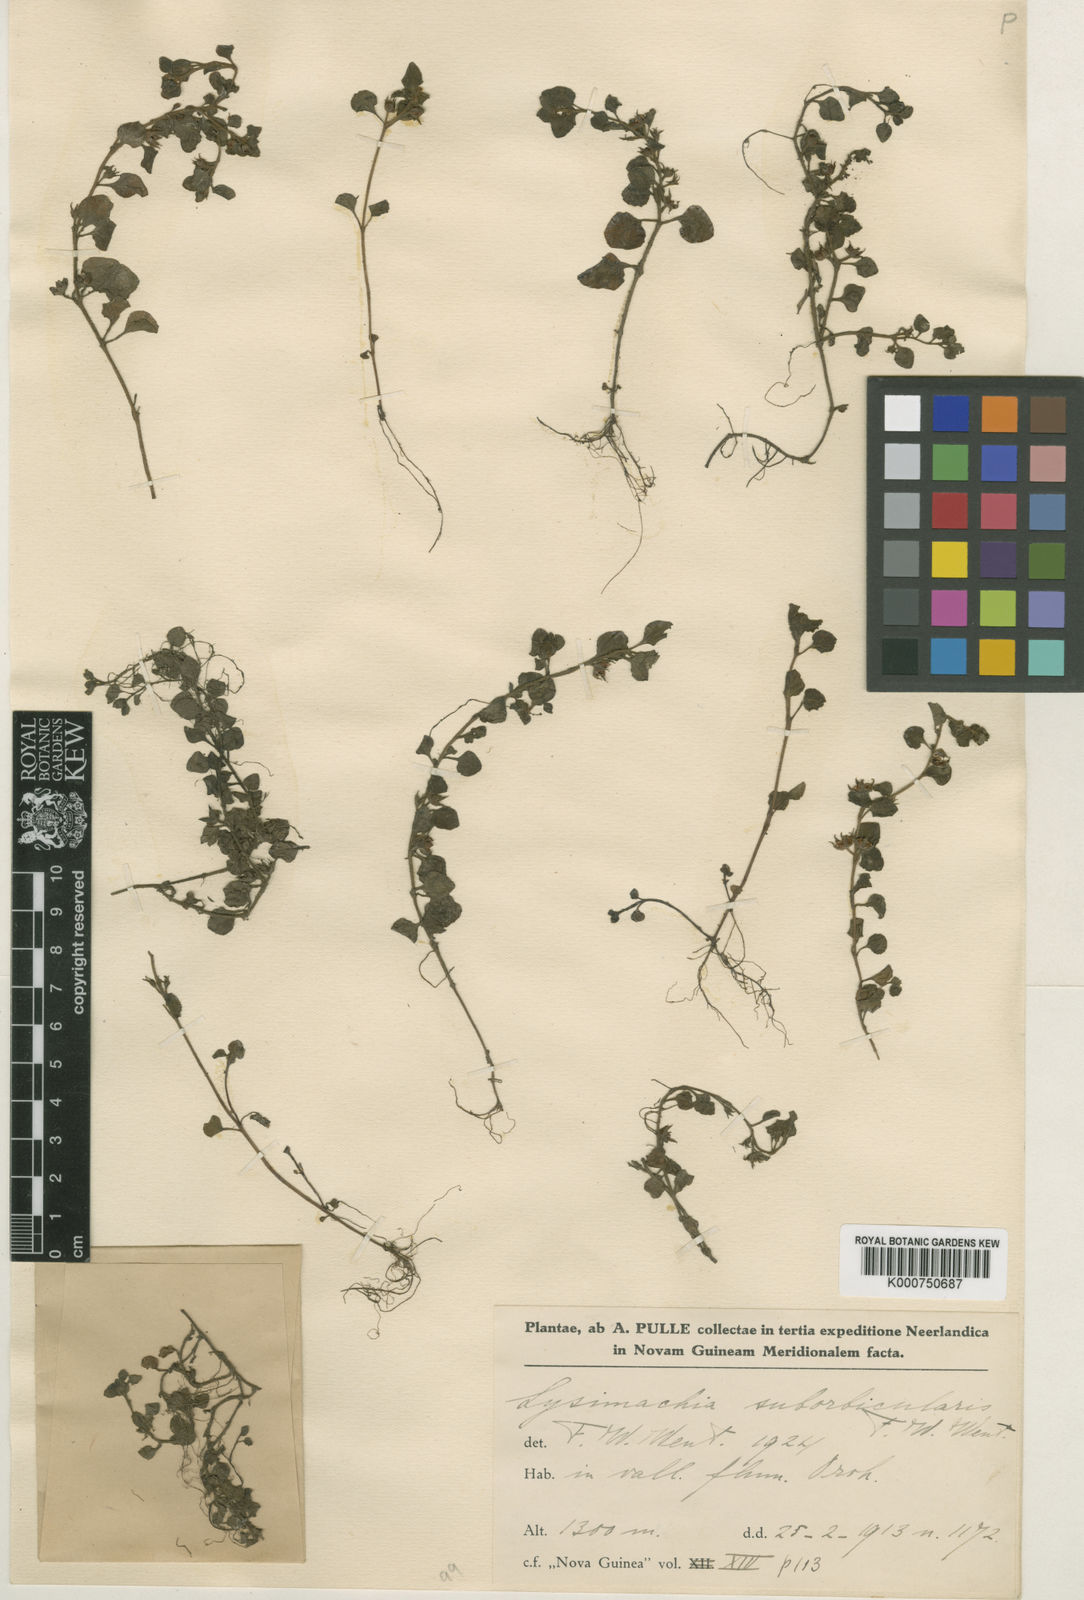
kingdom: Plantae
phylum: Tracheophyta
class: Magnoliopsida
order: Ericales
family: Primulaceae
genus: Lysimachia
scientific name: Lysimachia japonica
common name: Japanese yellow loosestrife
